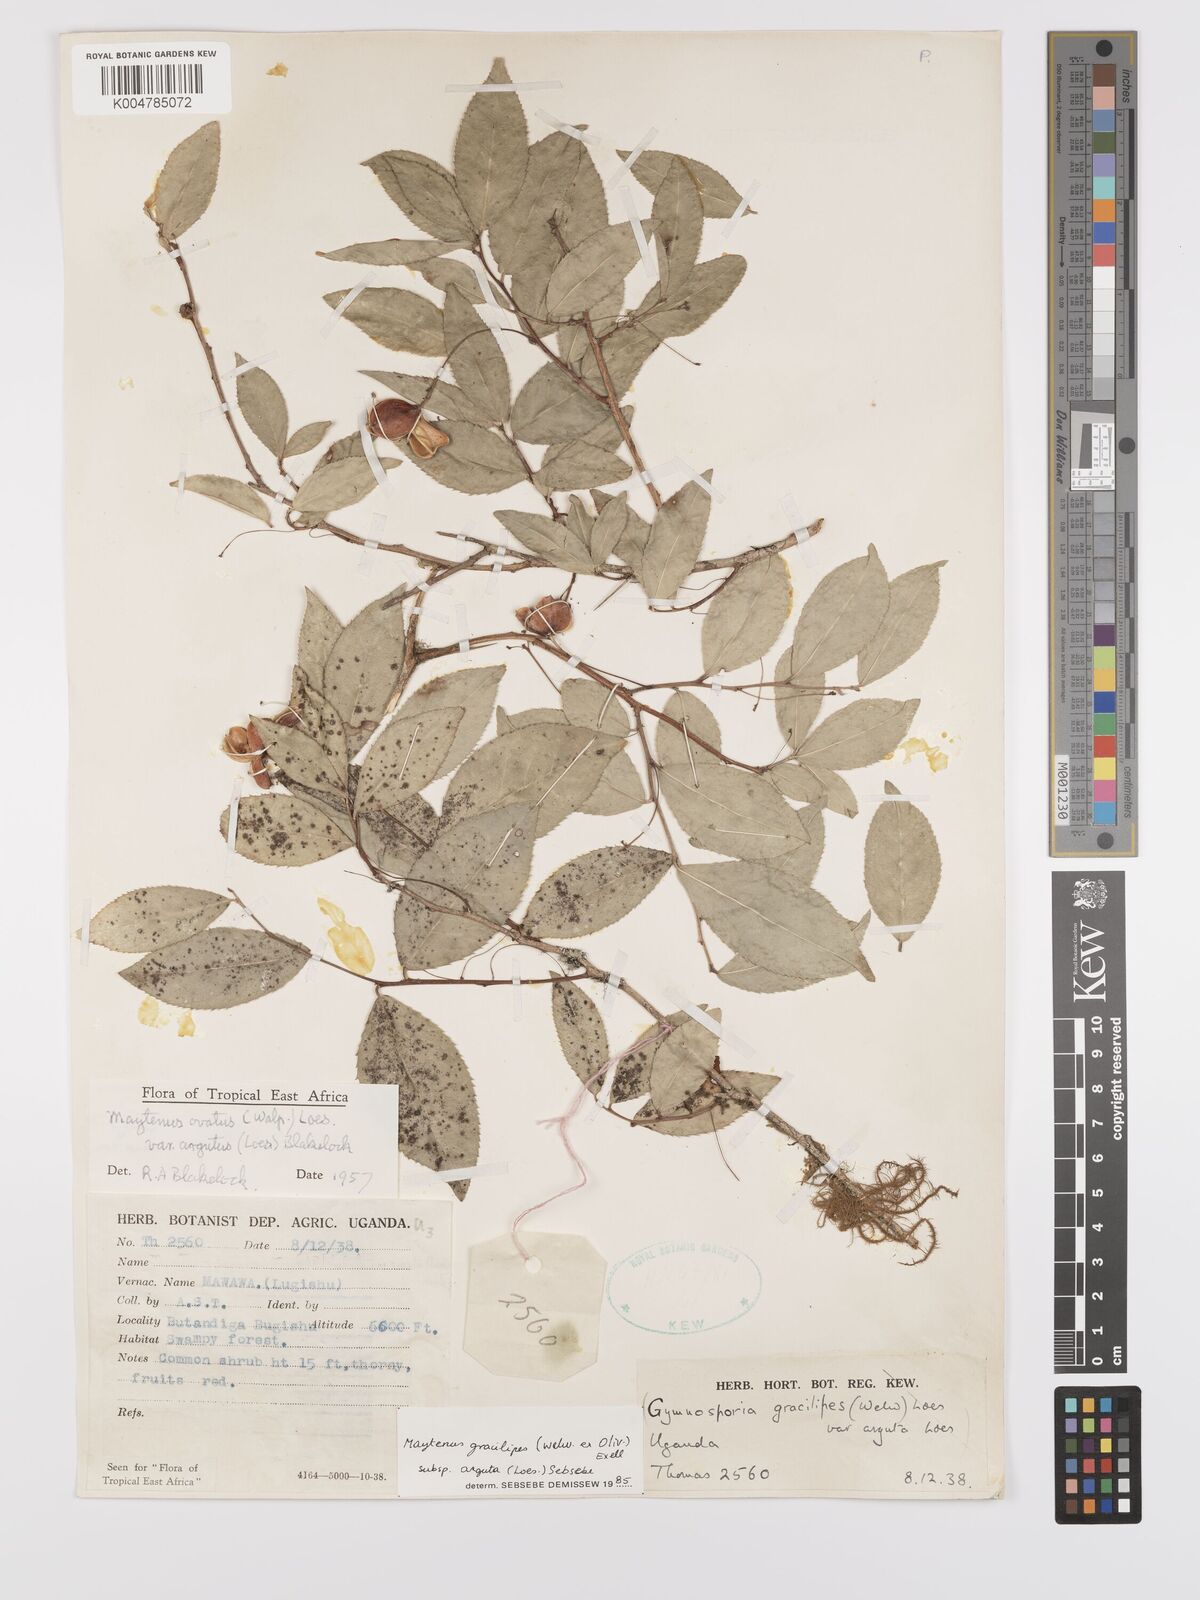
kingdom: Plantae
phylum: Tracheophyta
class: Magnoliopsida
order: Celastrales
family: Celastraceae
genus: Gymnosporia
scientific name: Gymnosporia gracilipes
